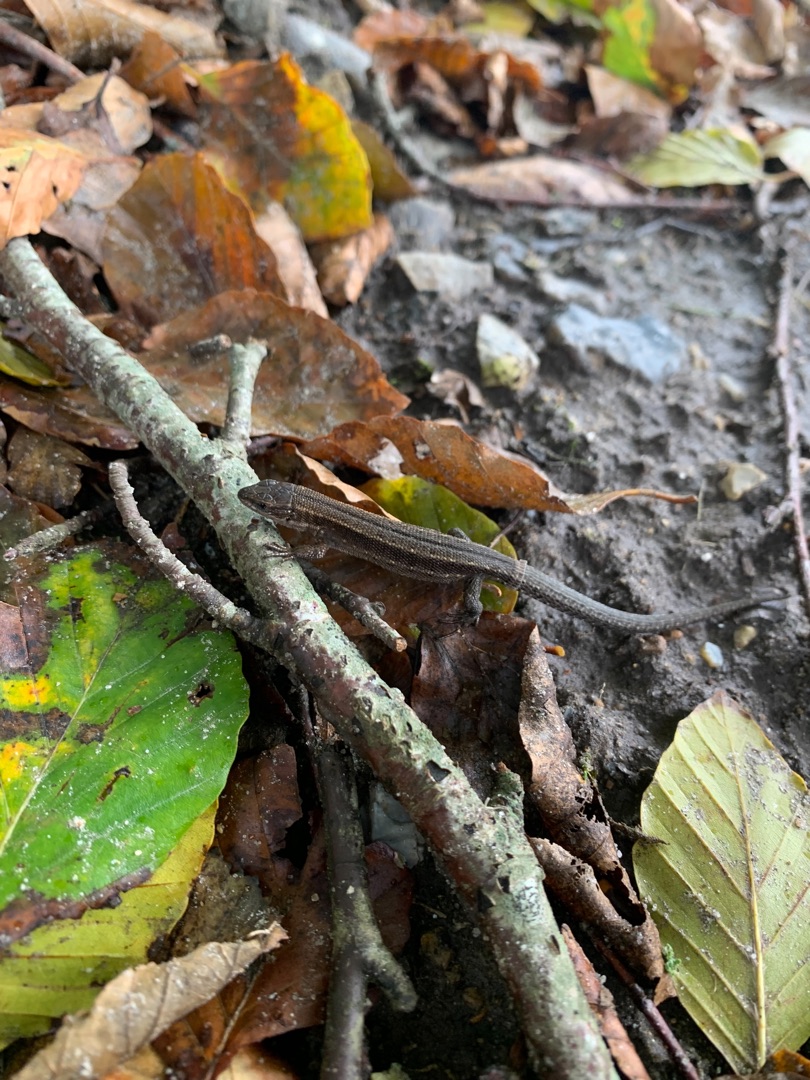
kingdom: Animalia
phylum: Chordata
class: Squamata
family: Lacertidae
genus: Zootoca
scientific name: Zootoca vivipara
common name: Skovfirben
